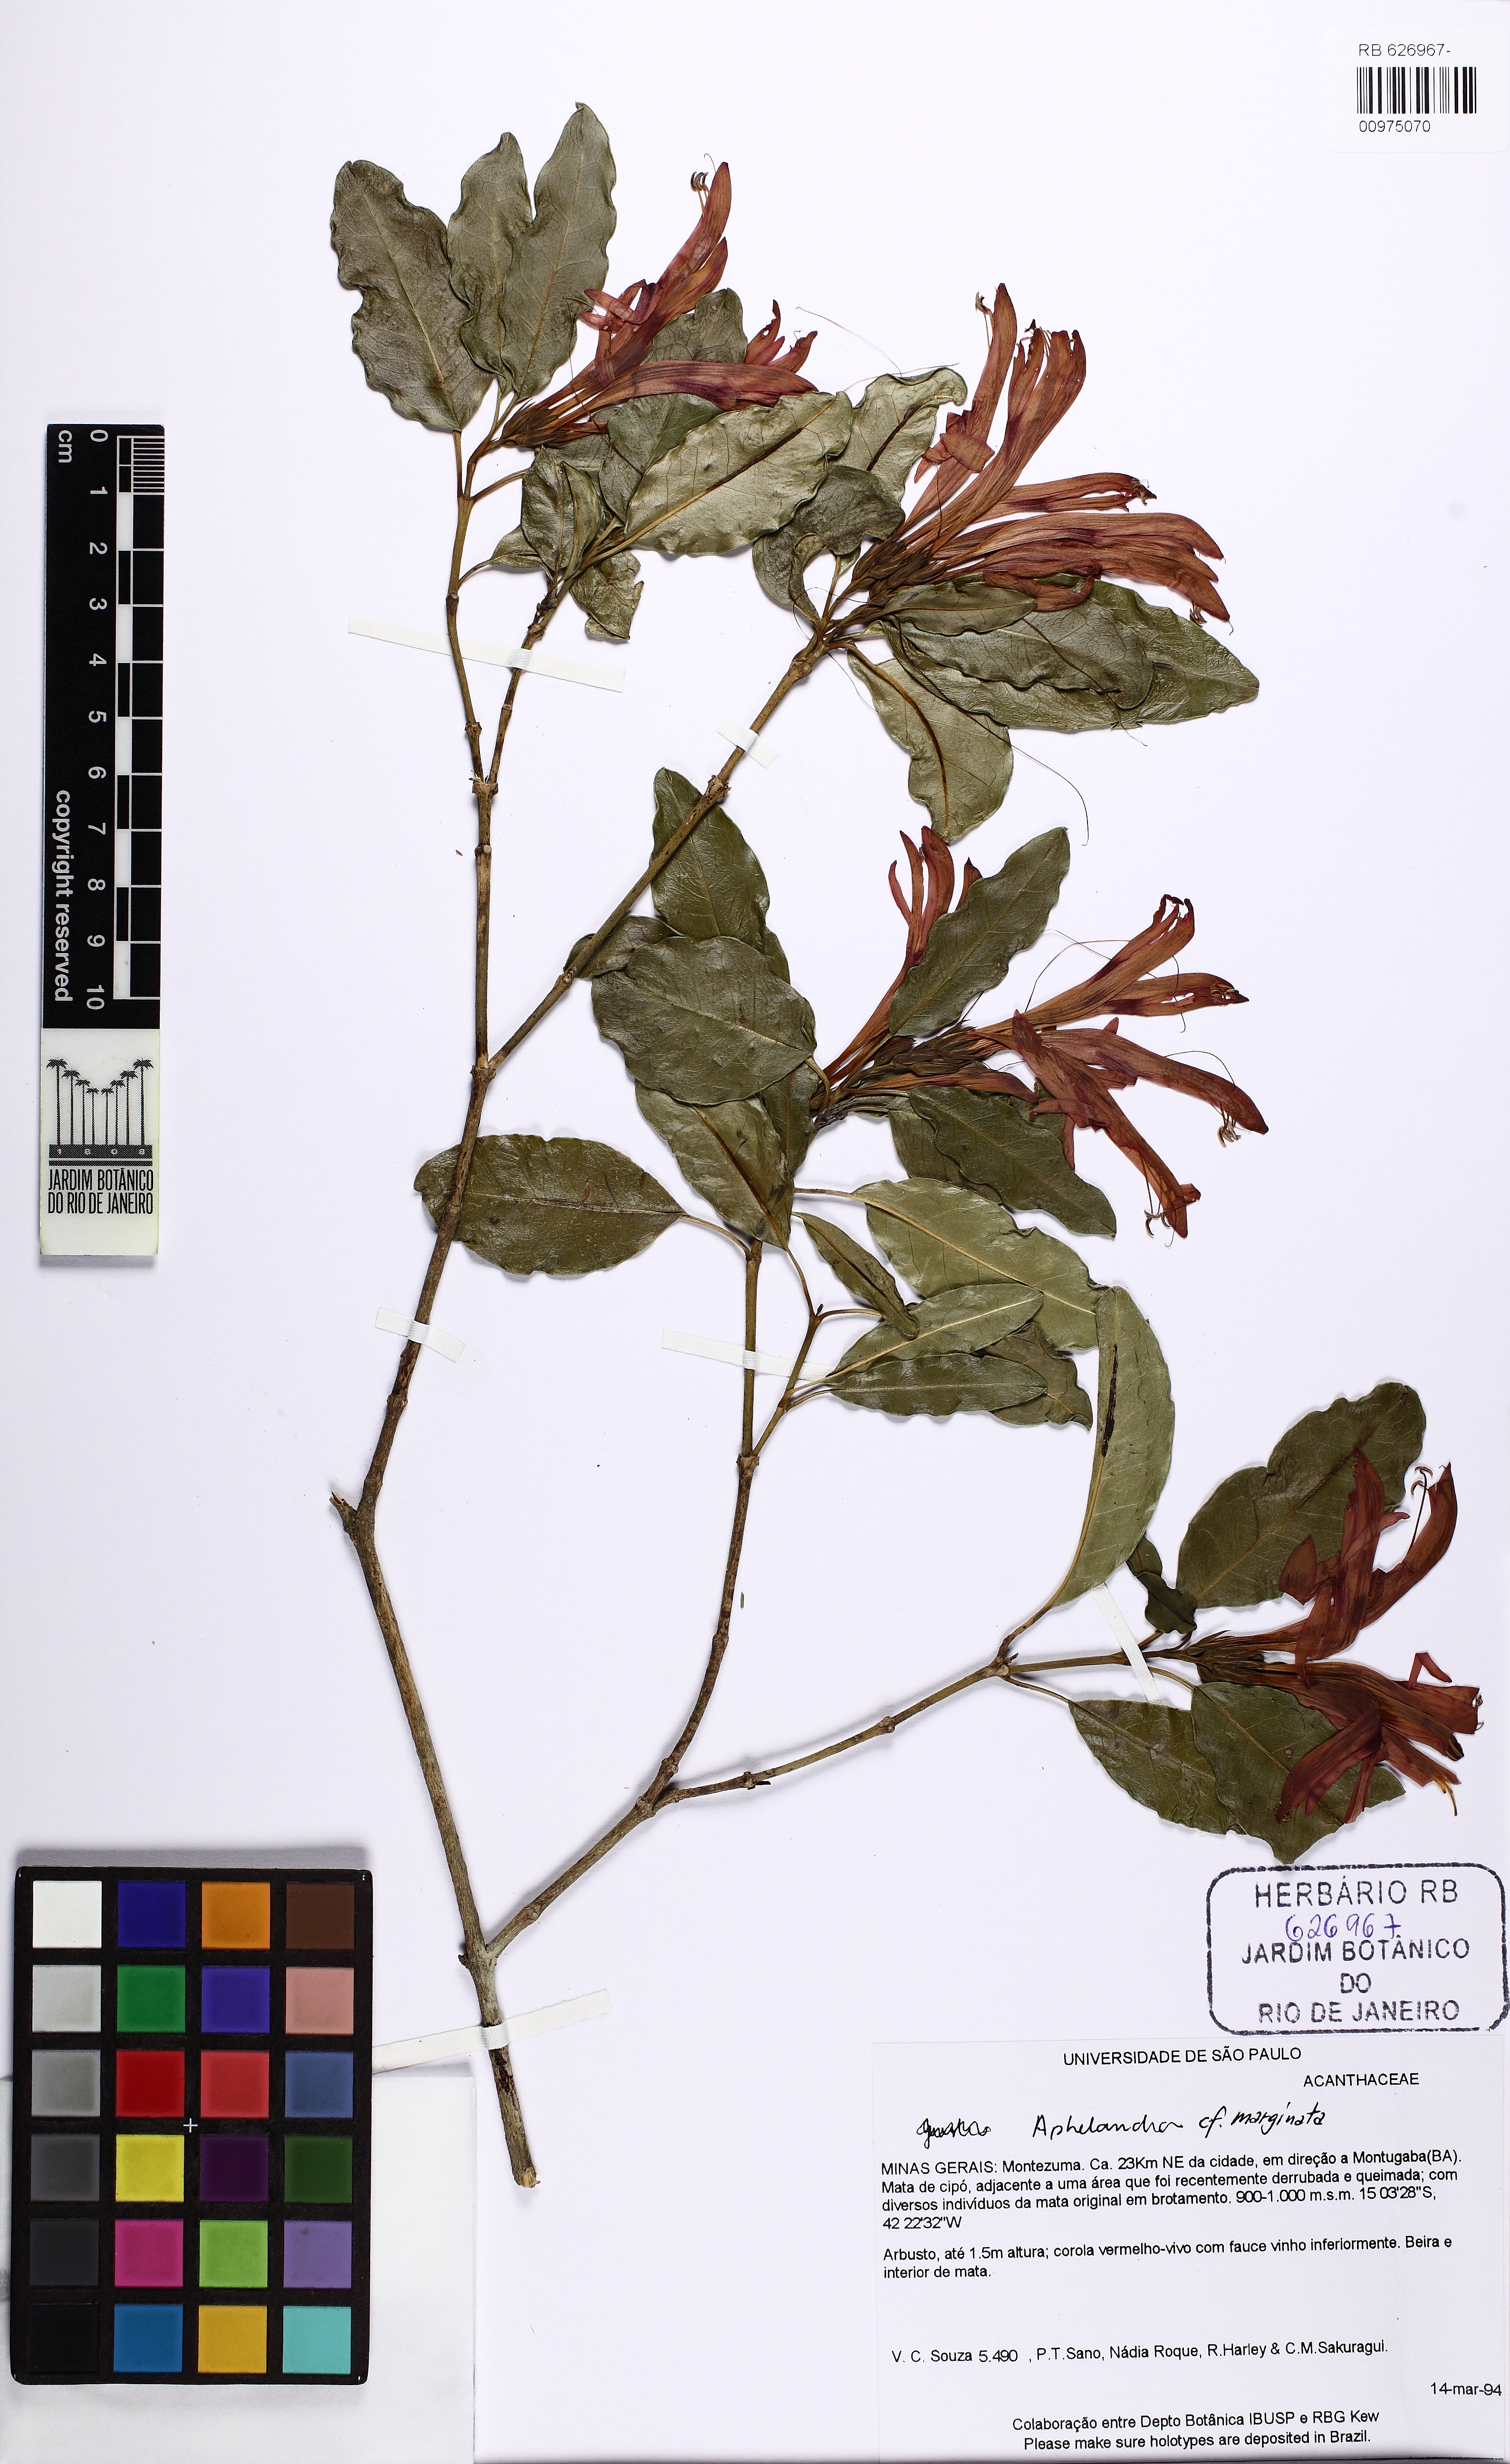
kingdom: Plantae
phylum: Tracheophyta
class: Magnoliopsida
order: Lamiales
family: Acanthaceae
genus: Aphelandra
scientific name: Aphelandra marginata
